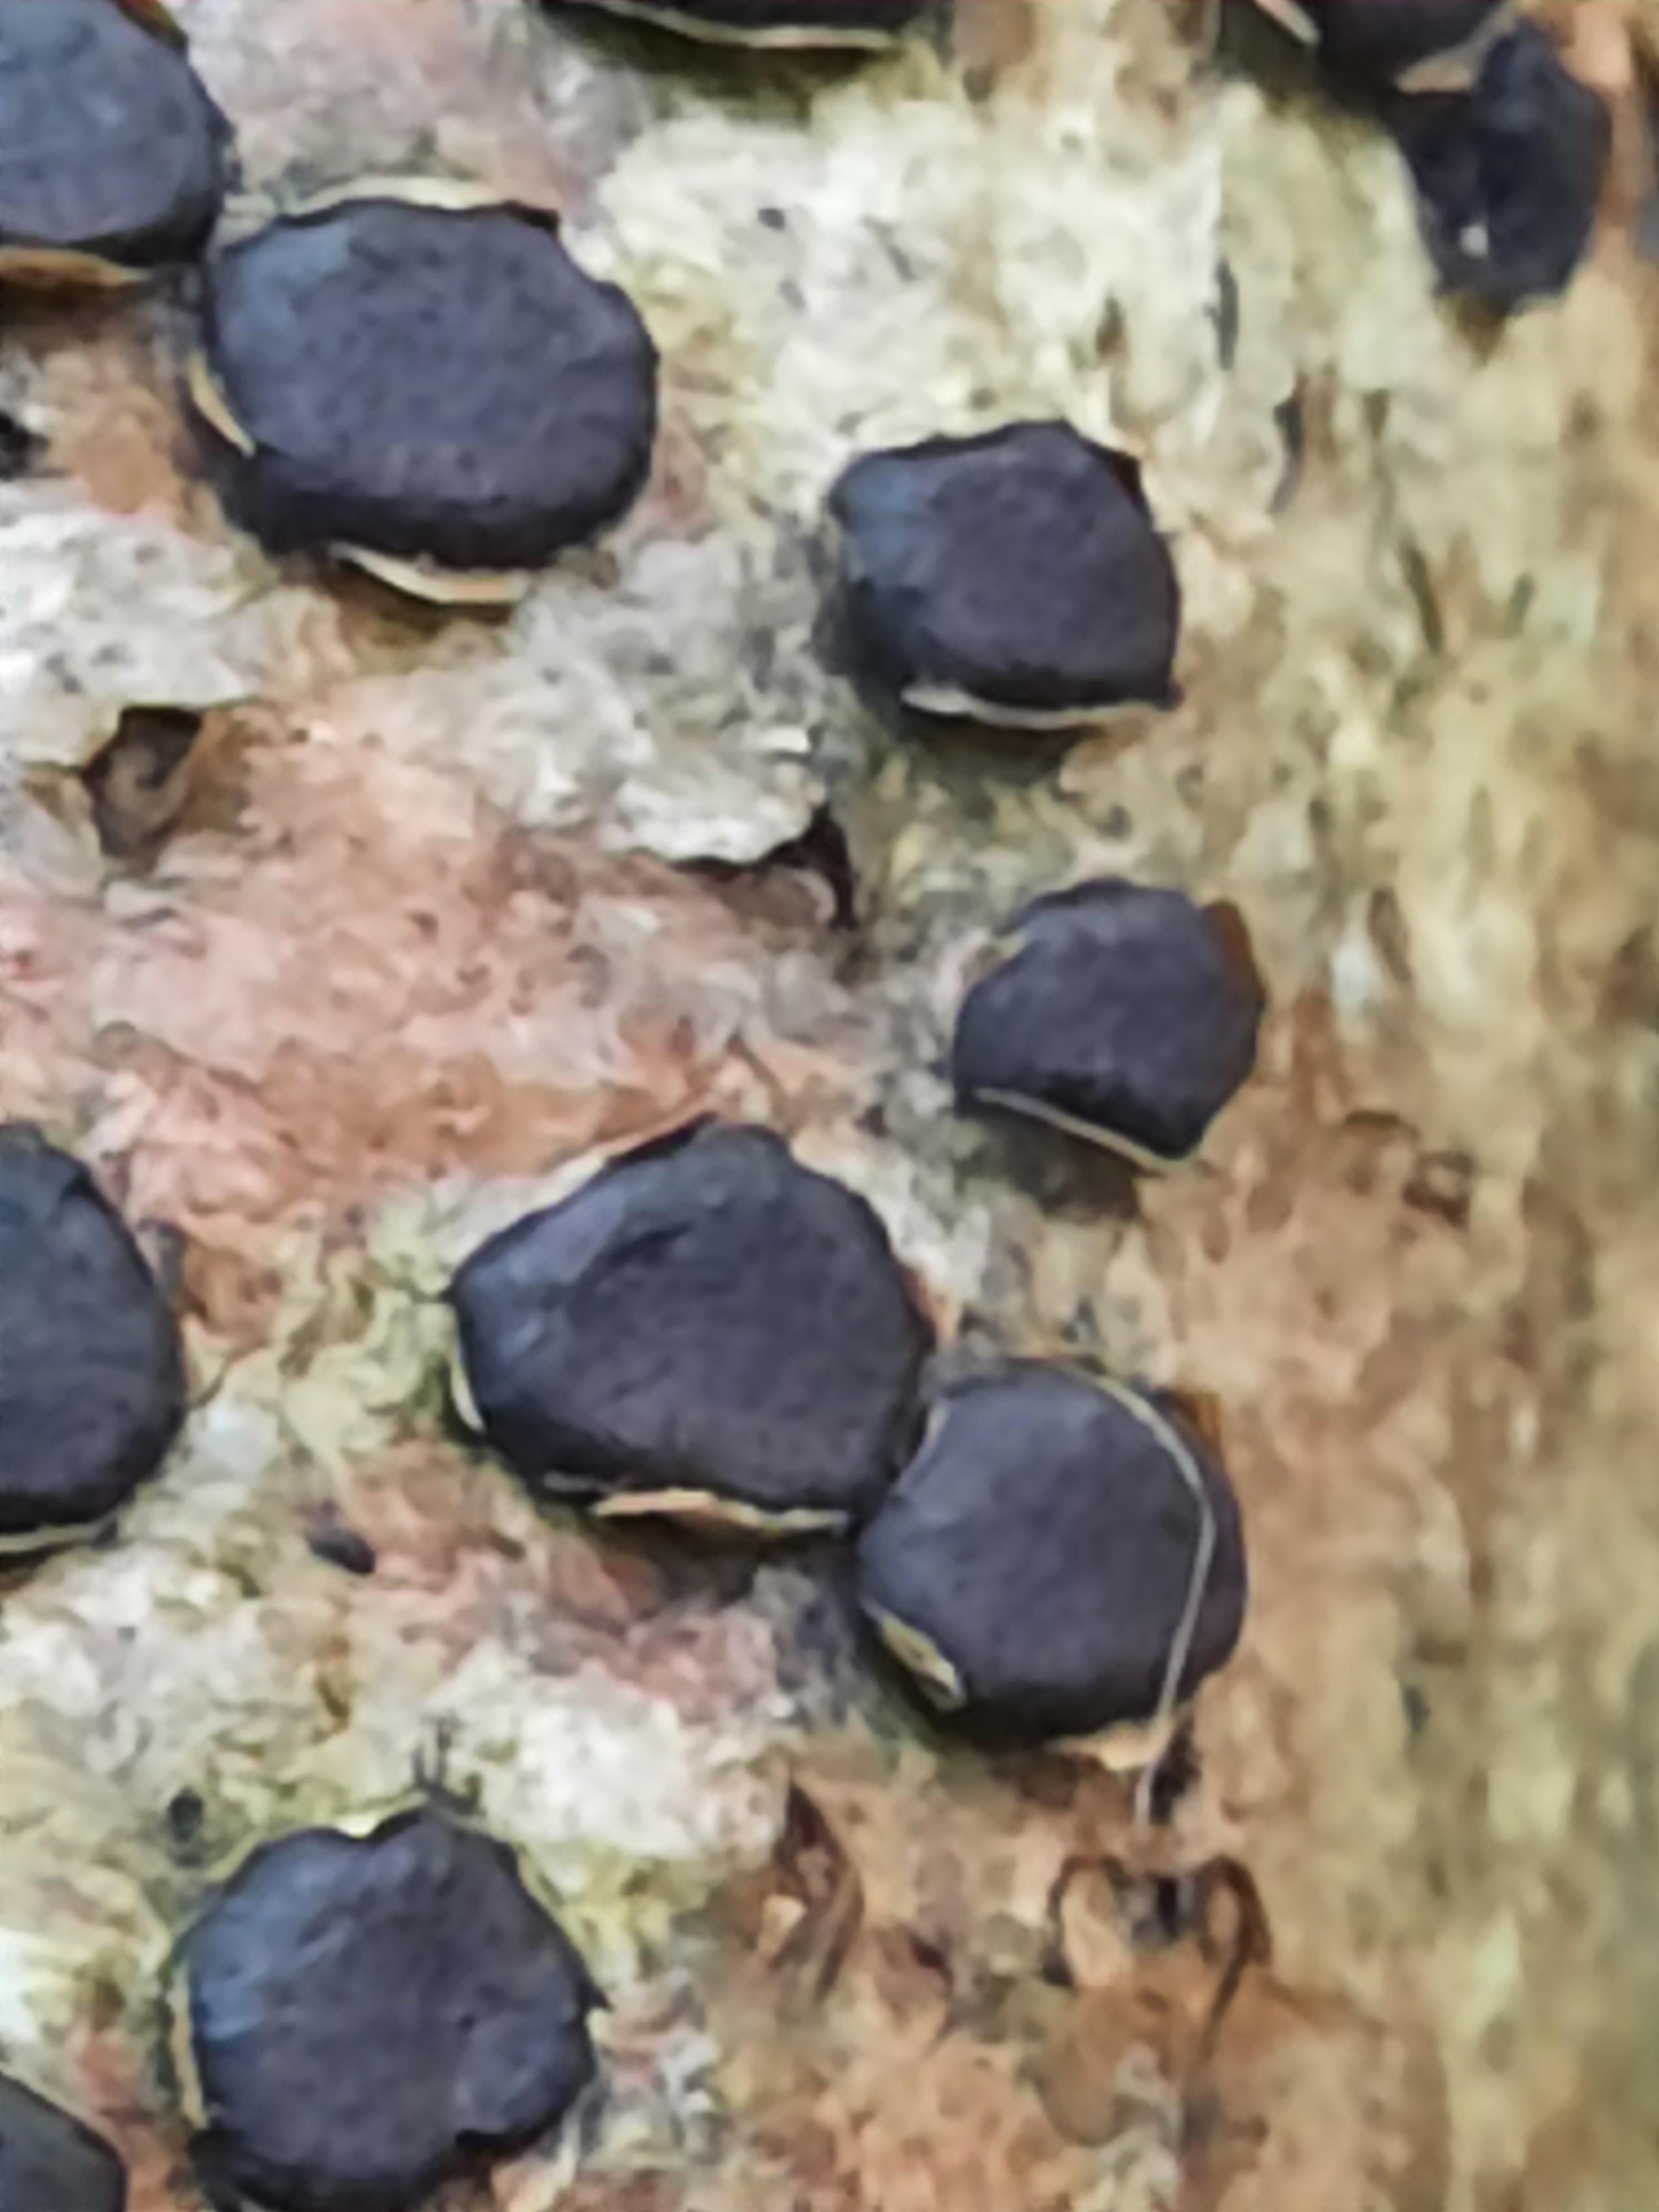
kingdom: Fungi
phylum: Ascomycota
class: Sordariomycetes
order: Xylariales
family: Diatrypaceae
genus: Diatrype
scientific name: Diatrype disciformis
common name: kant-kulskorpe
